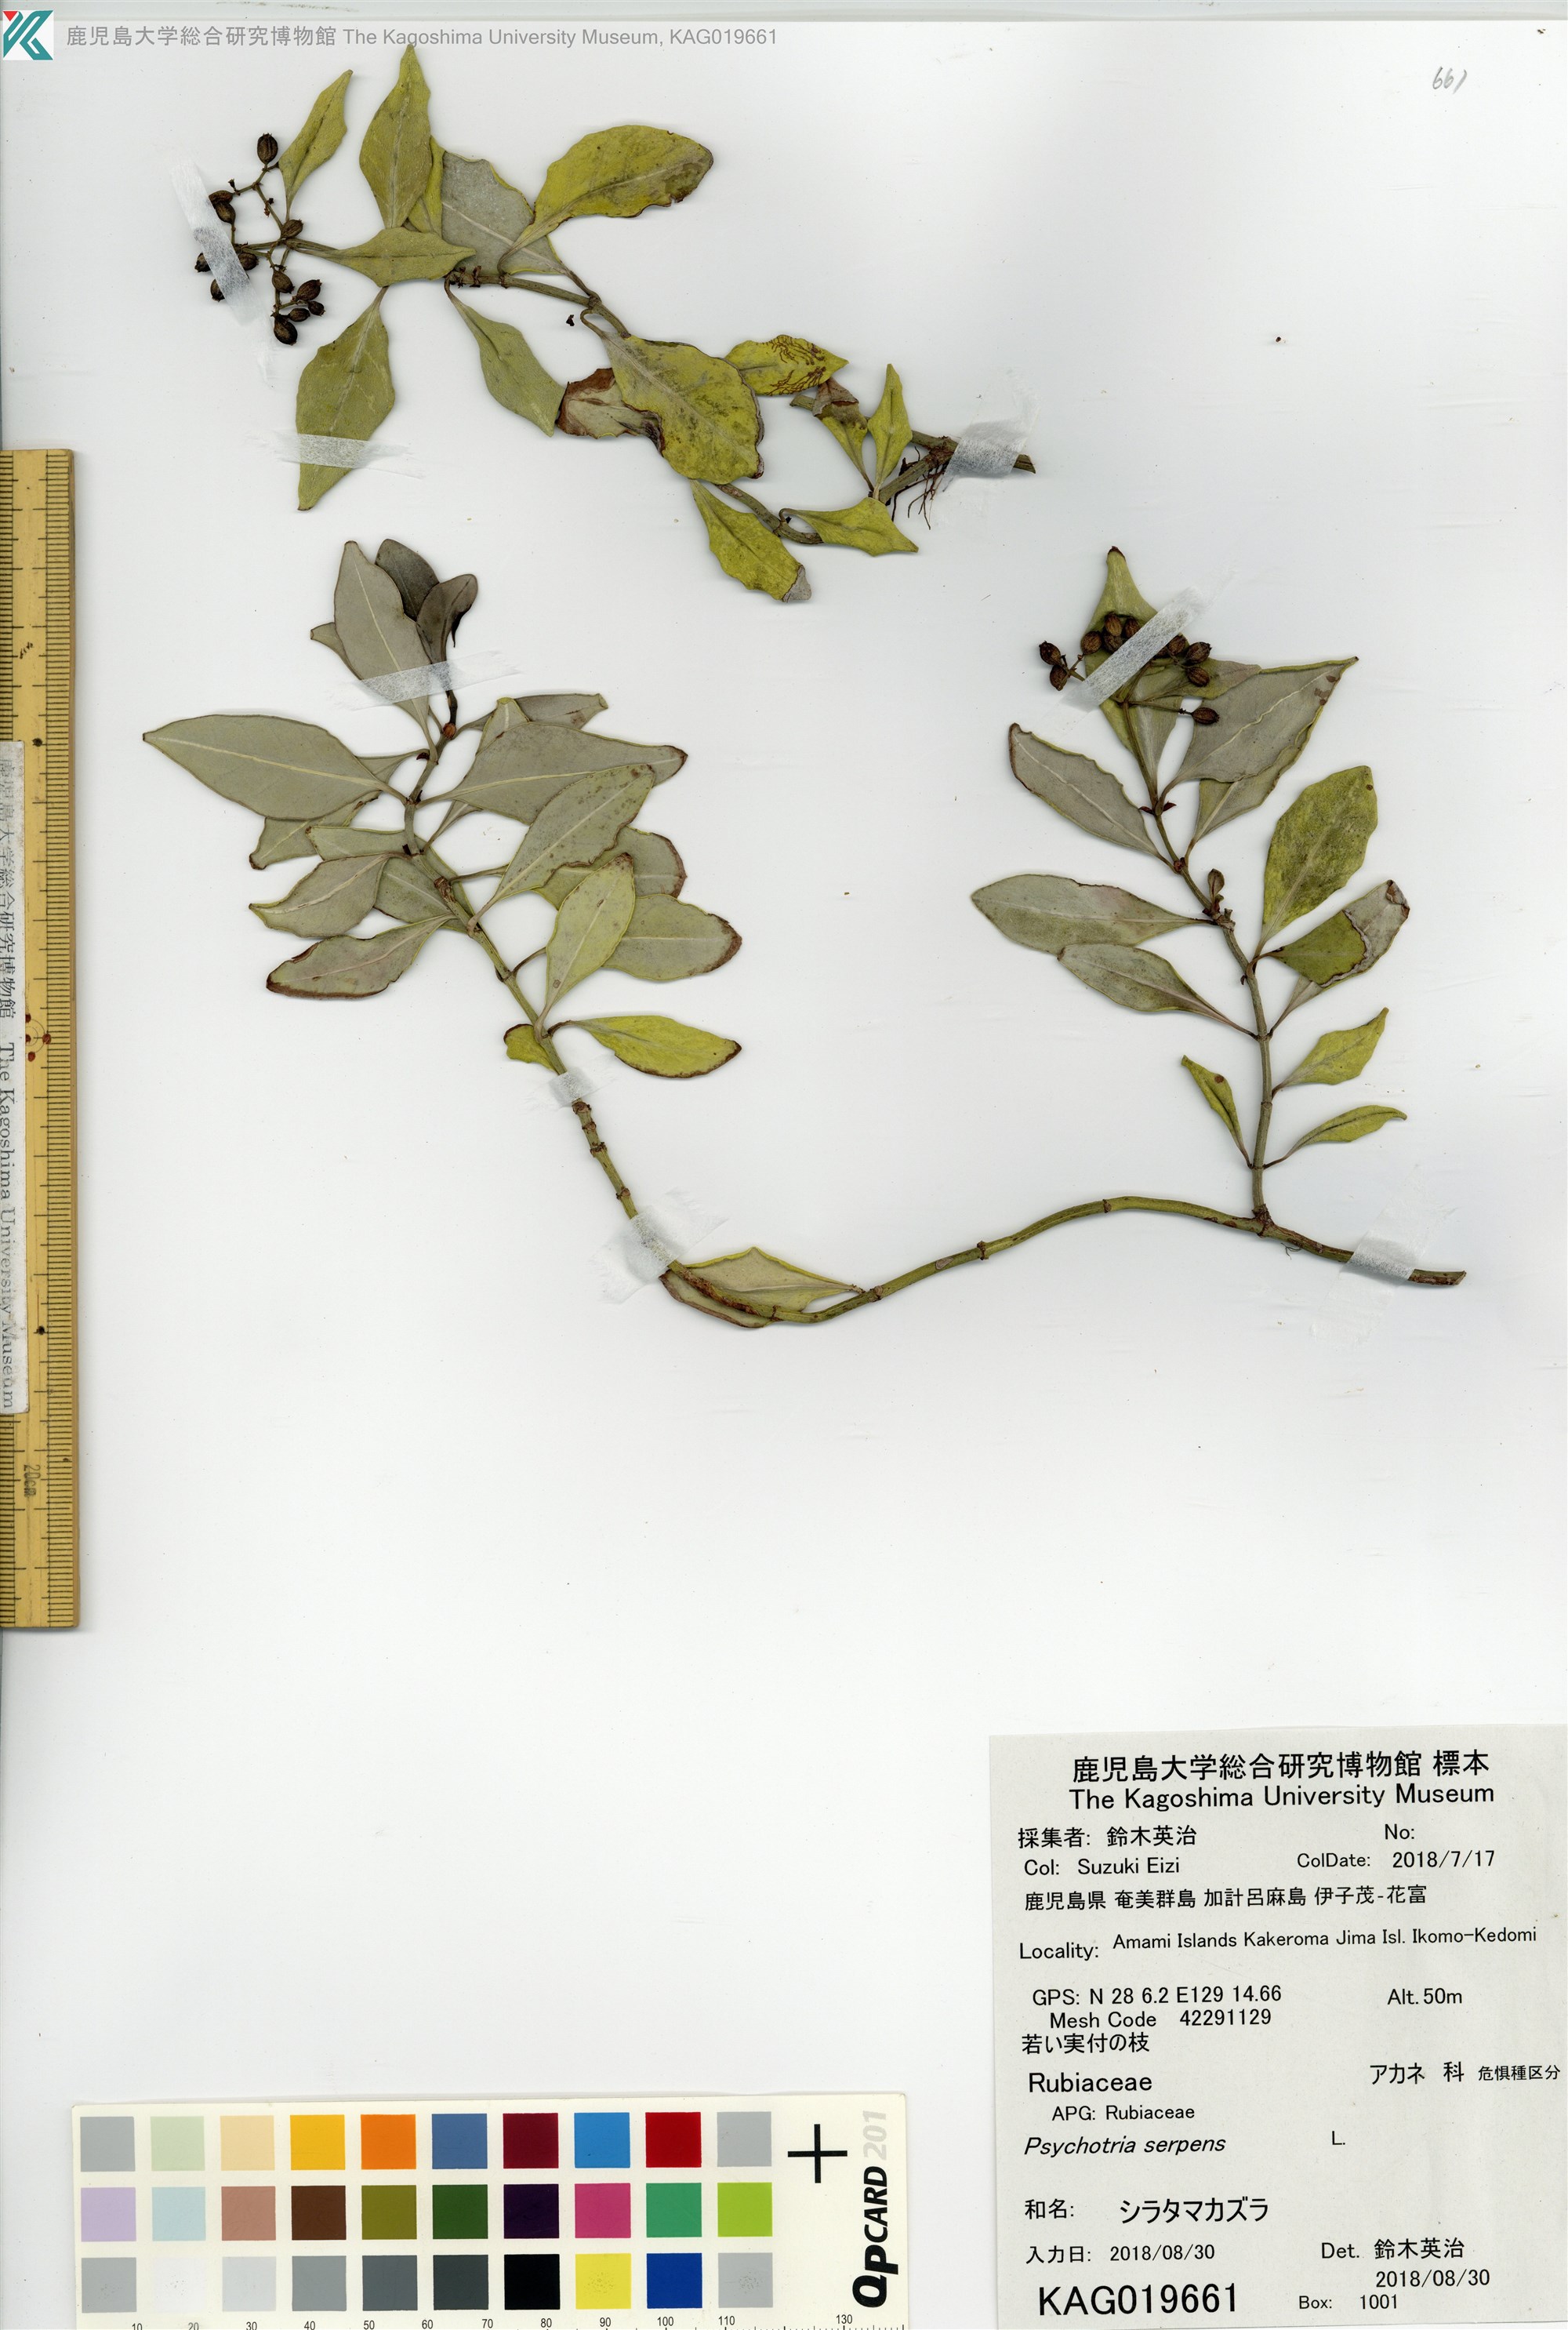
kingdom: Plantae
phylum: Tracheophyta
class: Magnoliopsida
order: Gentianales
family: Rubiaceae
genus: Psychotria
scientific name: Psychotria serpens
